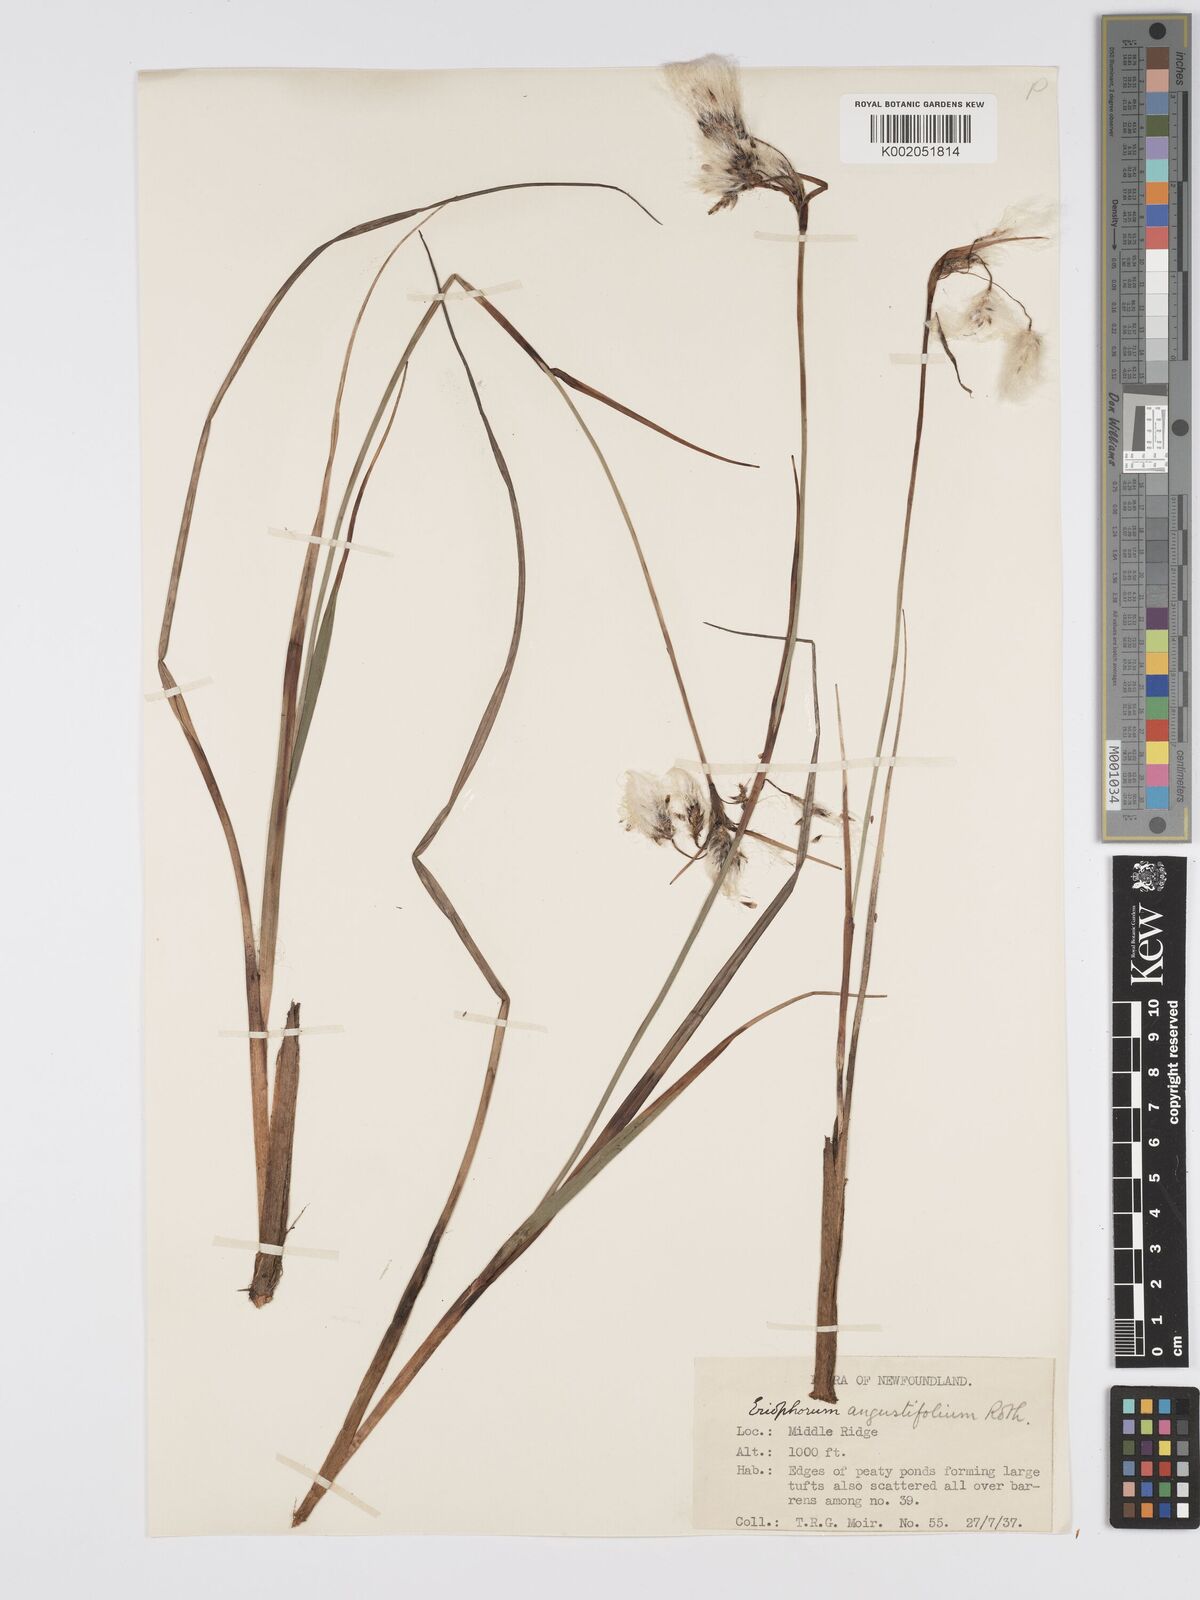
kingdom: Plantae
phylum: Tracheophyta
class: Liliopsida
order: Poales
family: Cyperaceae
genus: Eriophorum
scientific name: Eriophorum angustifolium
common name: Common cottongrass
